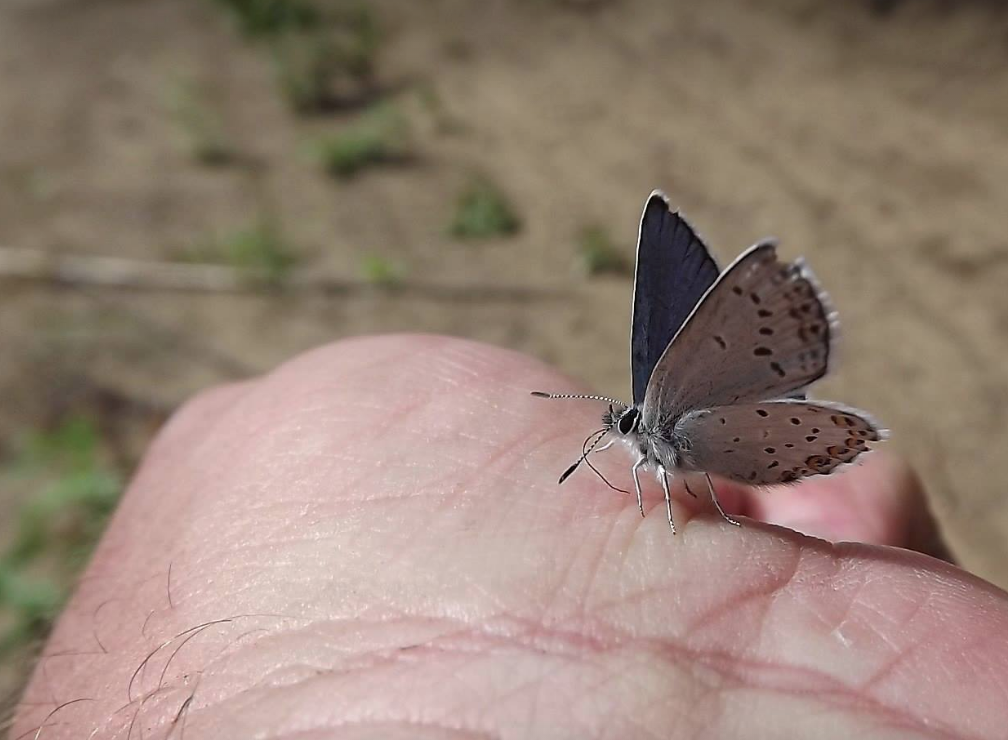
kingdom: Animalia
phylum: Arthropoda
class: Insecta
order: Lepidoptera
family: Lycaenidae
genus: Lycaeides
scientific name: Lycaeides melissa
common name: Melissa Blue
